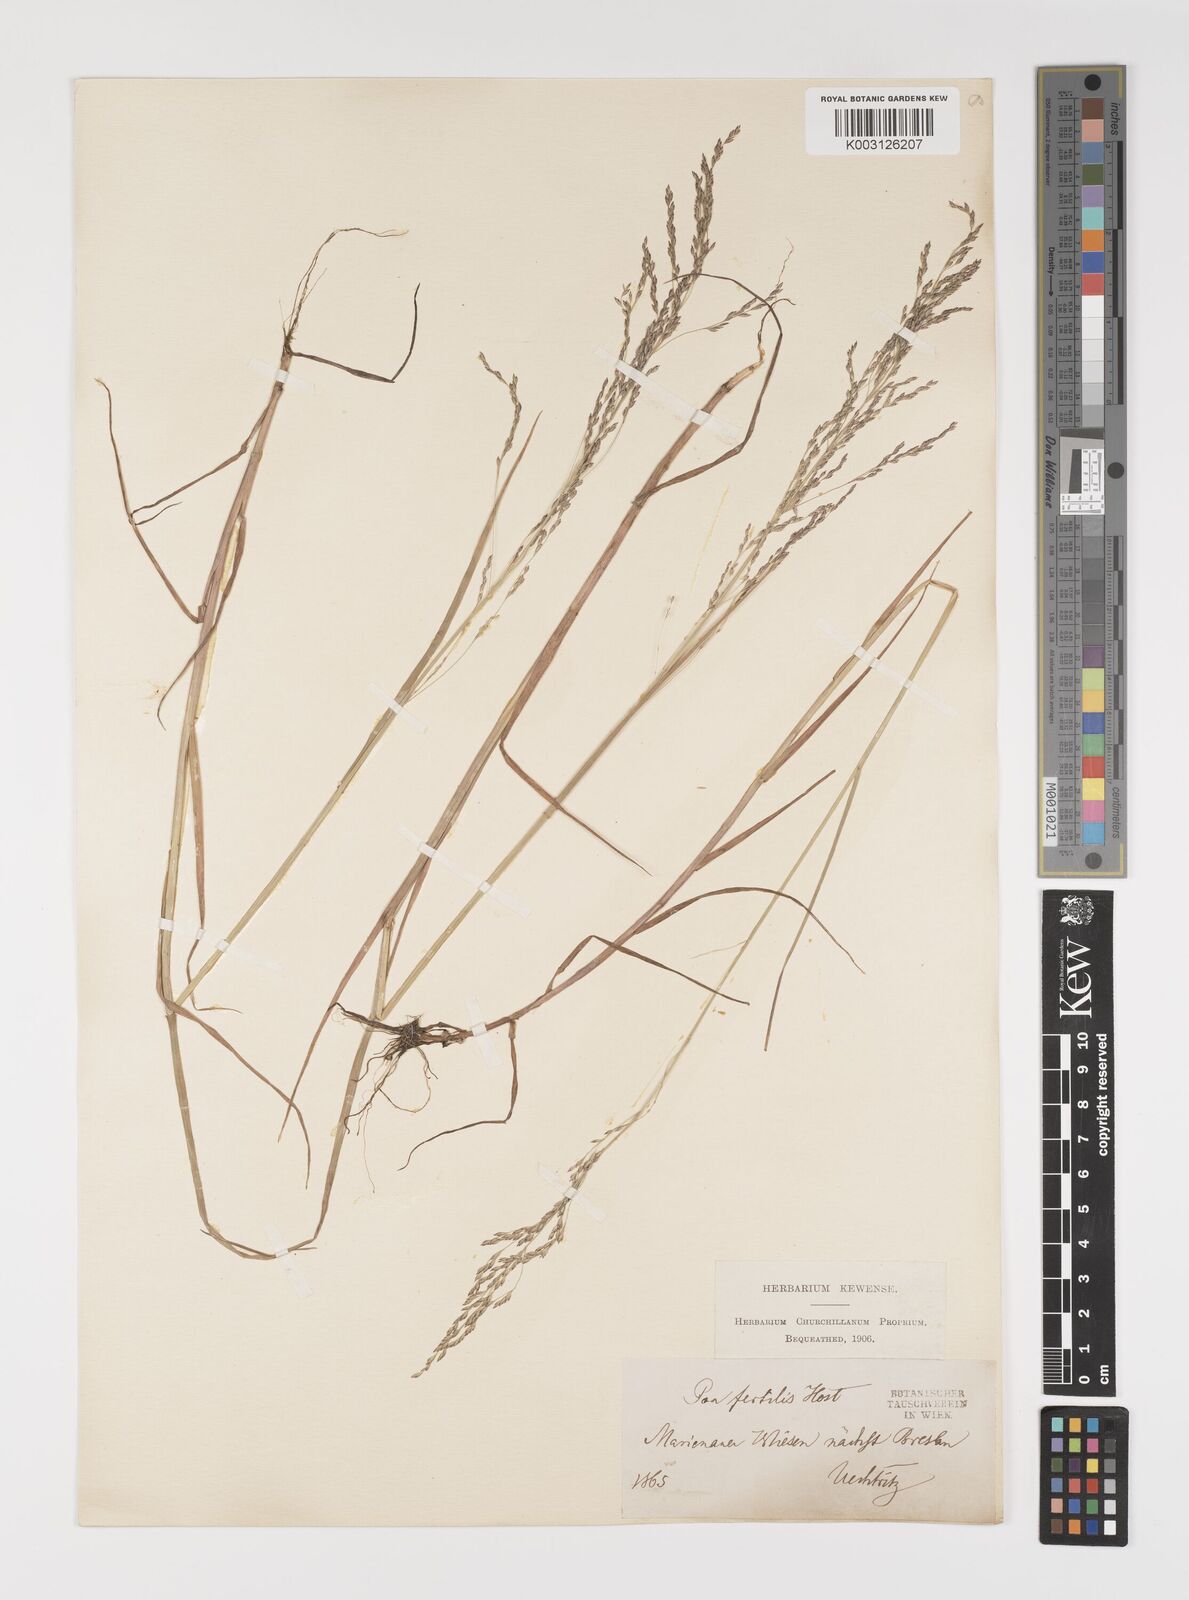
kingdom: Plantae
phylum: Tracheophyta
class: Liliopsida
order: Poales
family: Poaceae
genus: Poa
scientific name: Poa palustris
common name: Swamp meadow-grass
